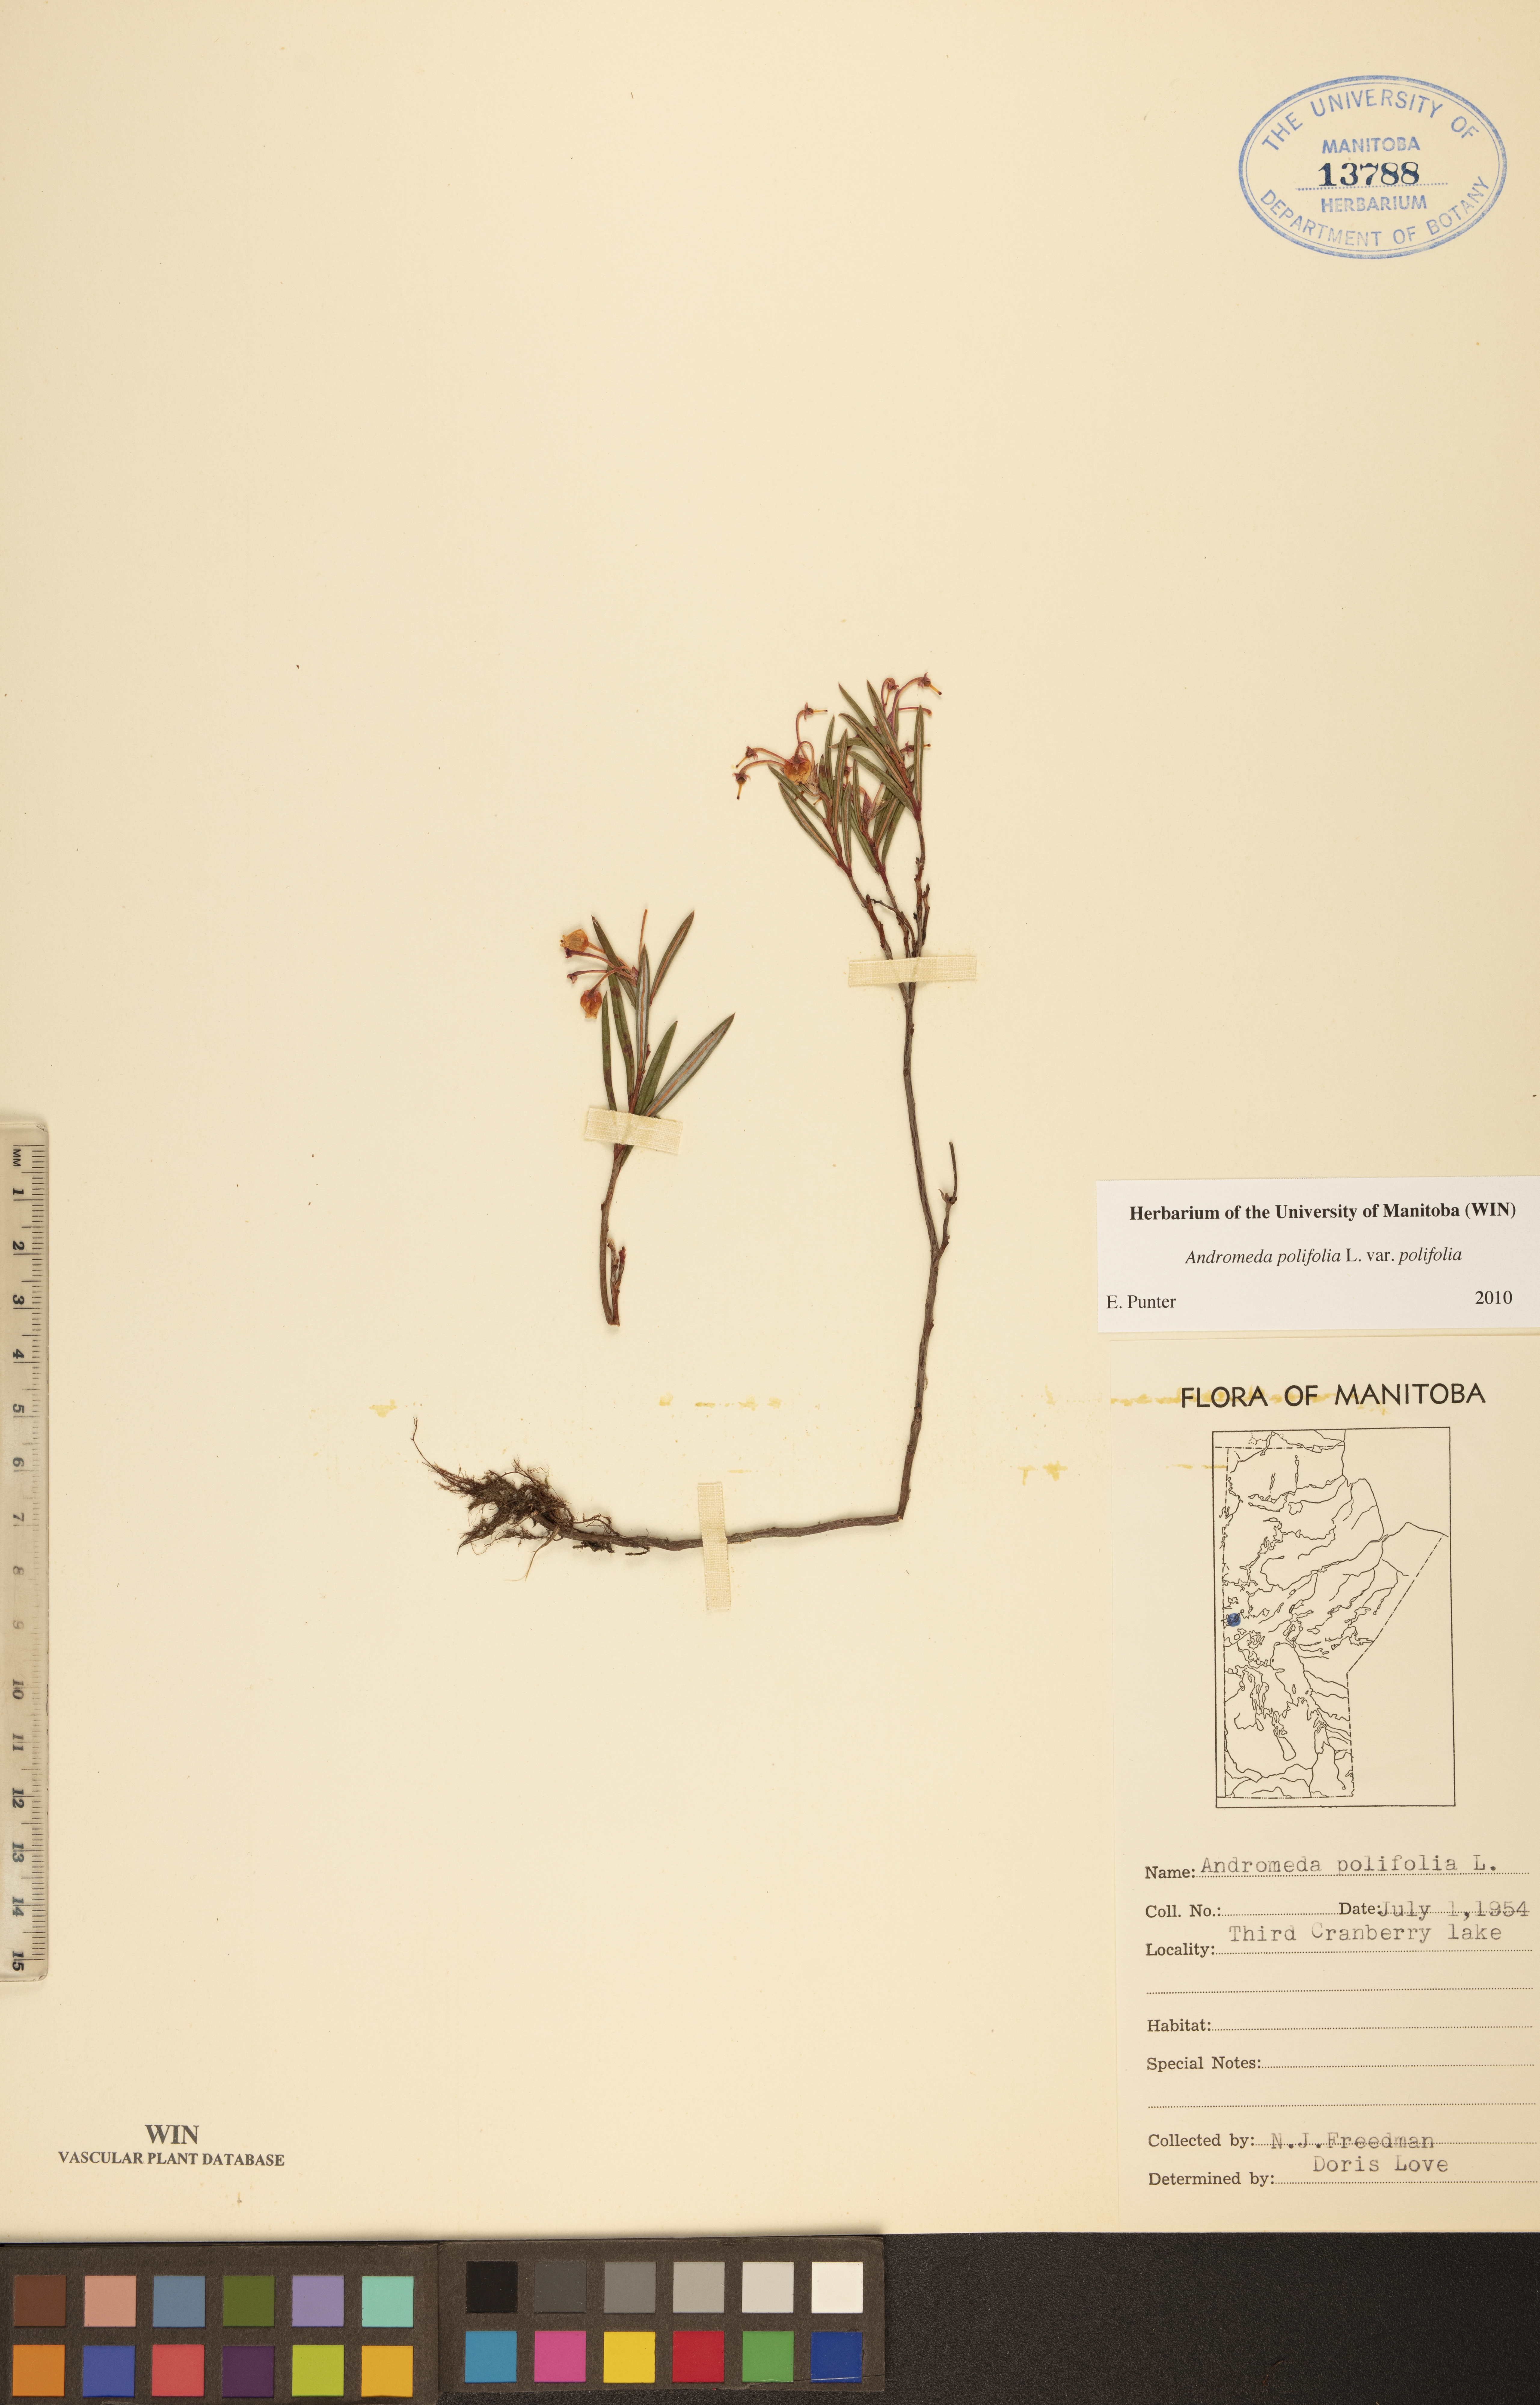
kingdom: Plantae
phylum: Tracheophyta
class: Magnoliopsida
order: Ericales
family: Ericaceae
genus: Andromeda
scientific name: Andromeda polifolia
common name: Bog-rosemary
